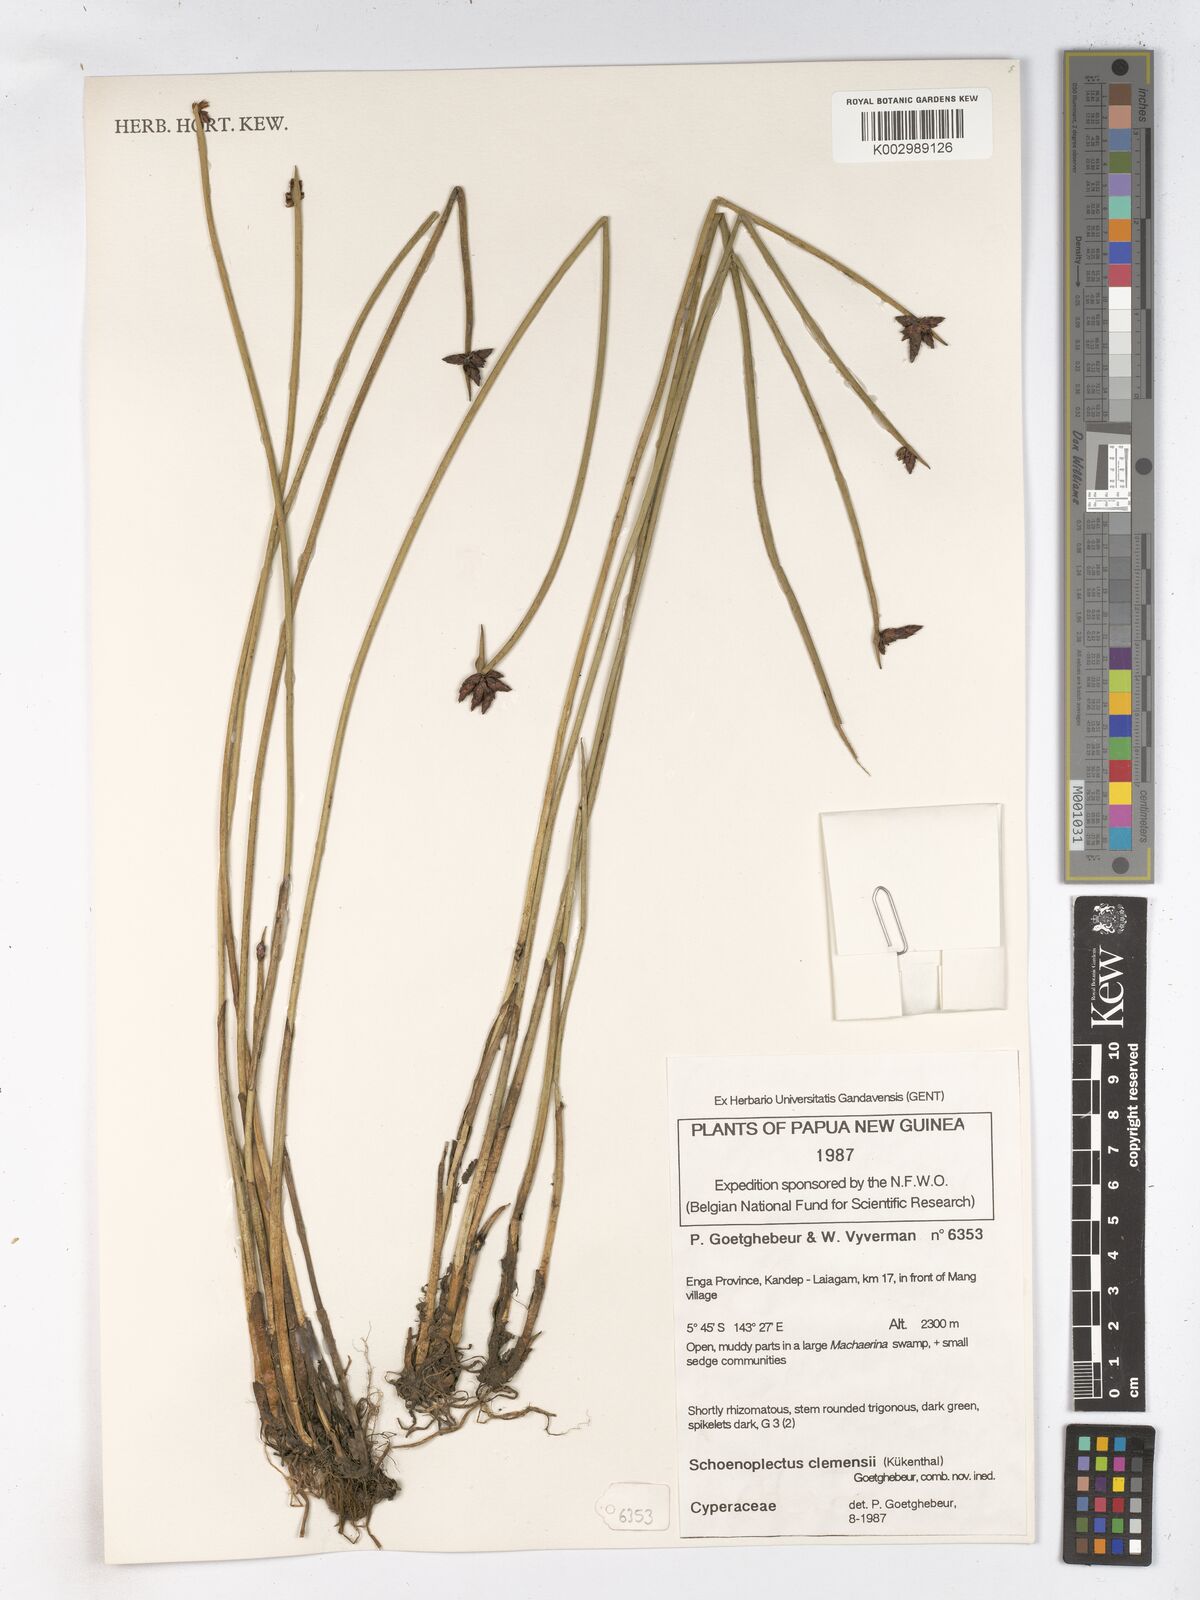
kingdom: Plantae
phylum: Tracheophyta
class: Liliopsida
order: Poales
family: Cyperaceae
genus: Schoenoplectiella
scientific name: Schoenoplectiella mucronata
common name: Bog bulrush
